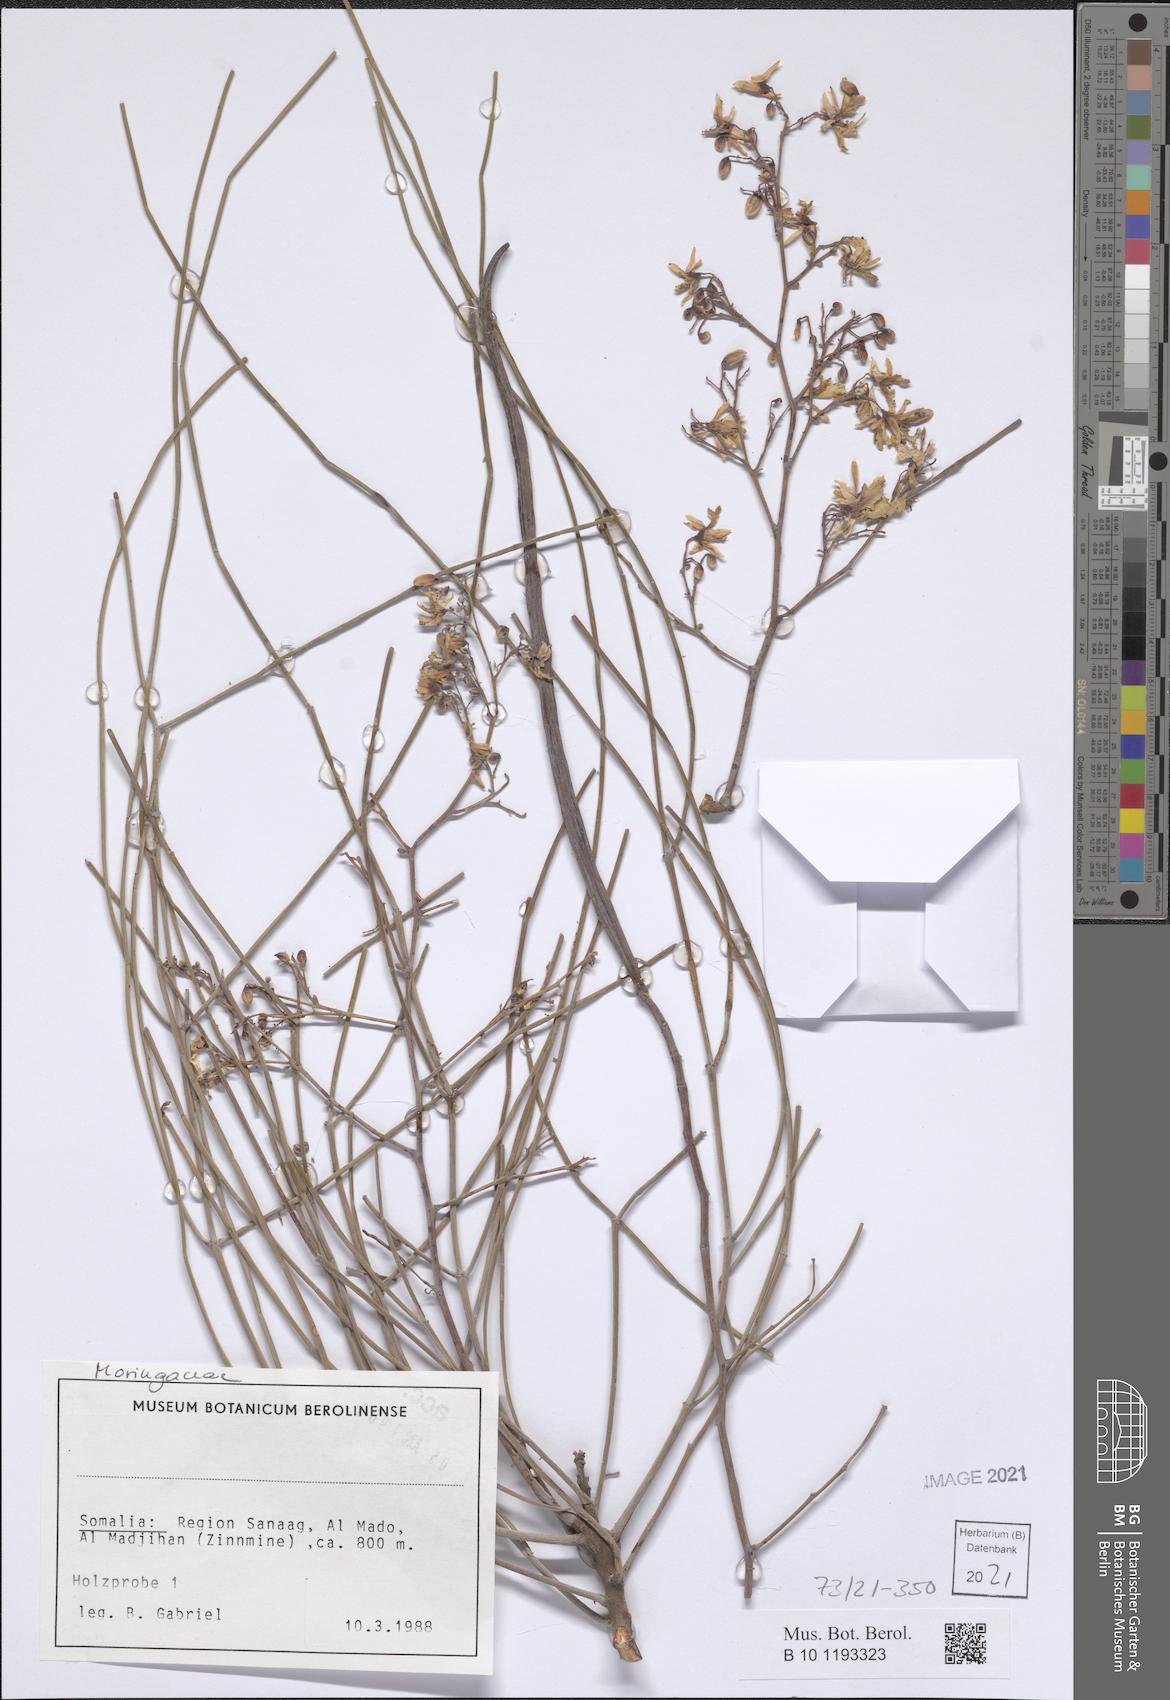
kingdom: Plantae
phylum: Tracheophyta
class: Magnoliopsida
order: Brassicales
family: Moringaceae
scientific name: Moringaceae
